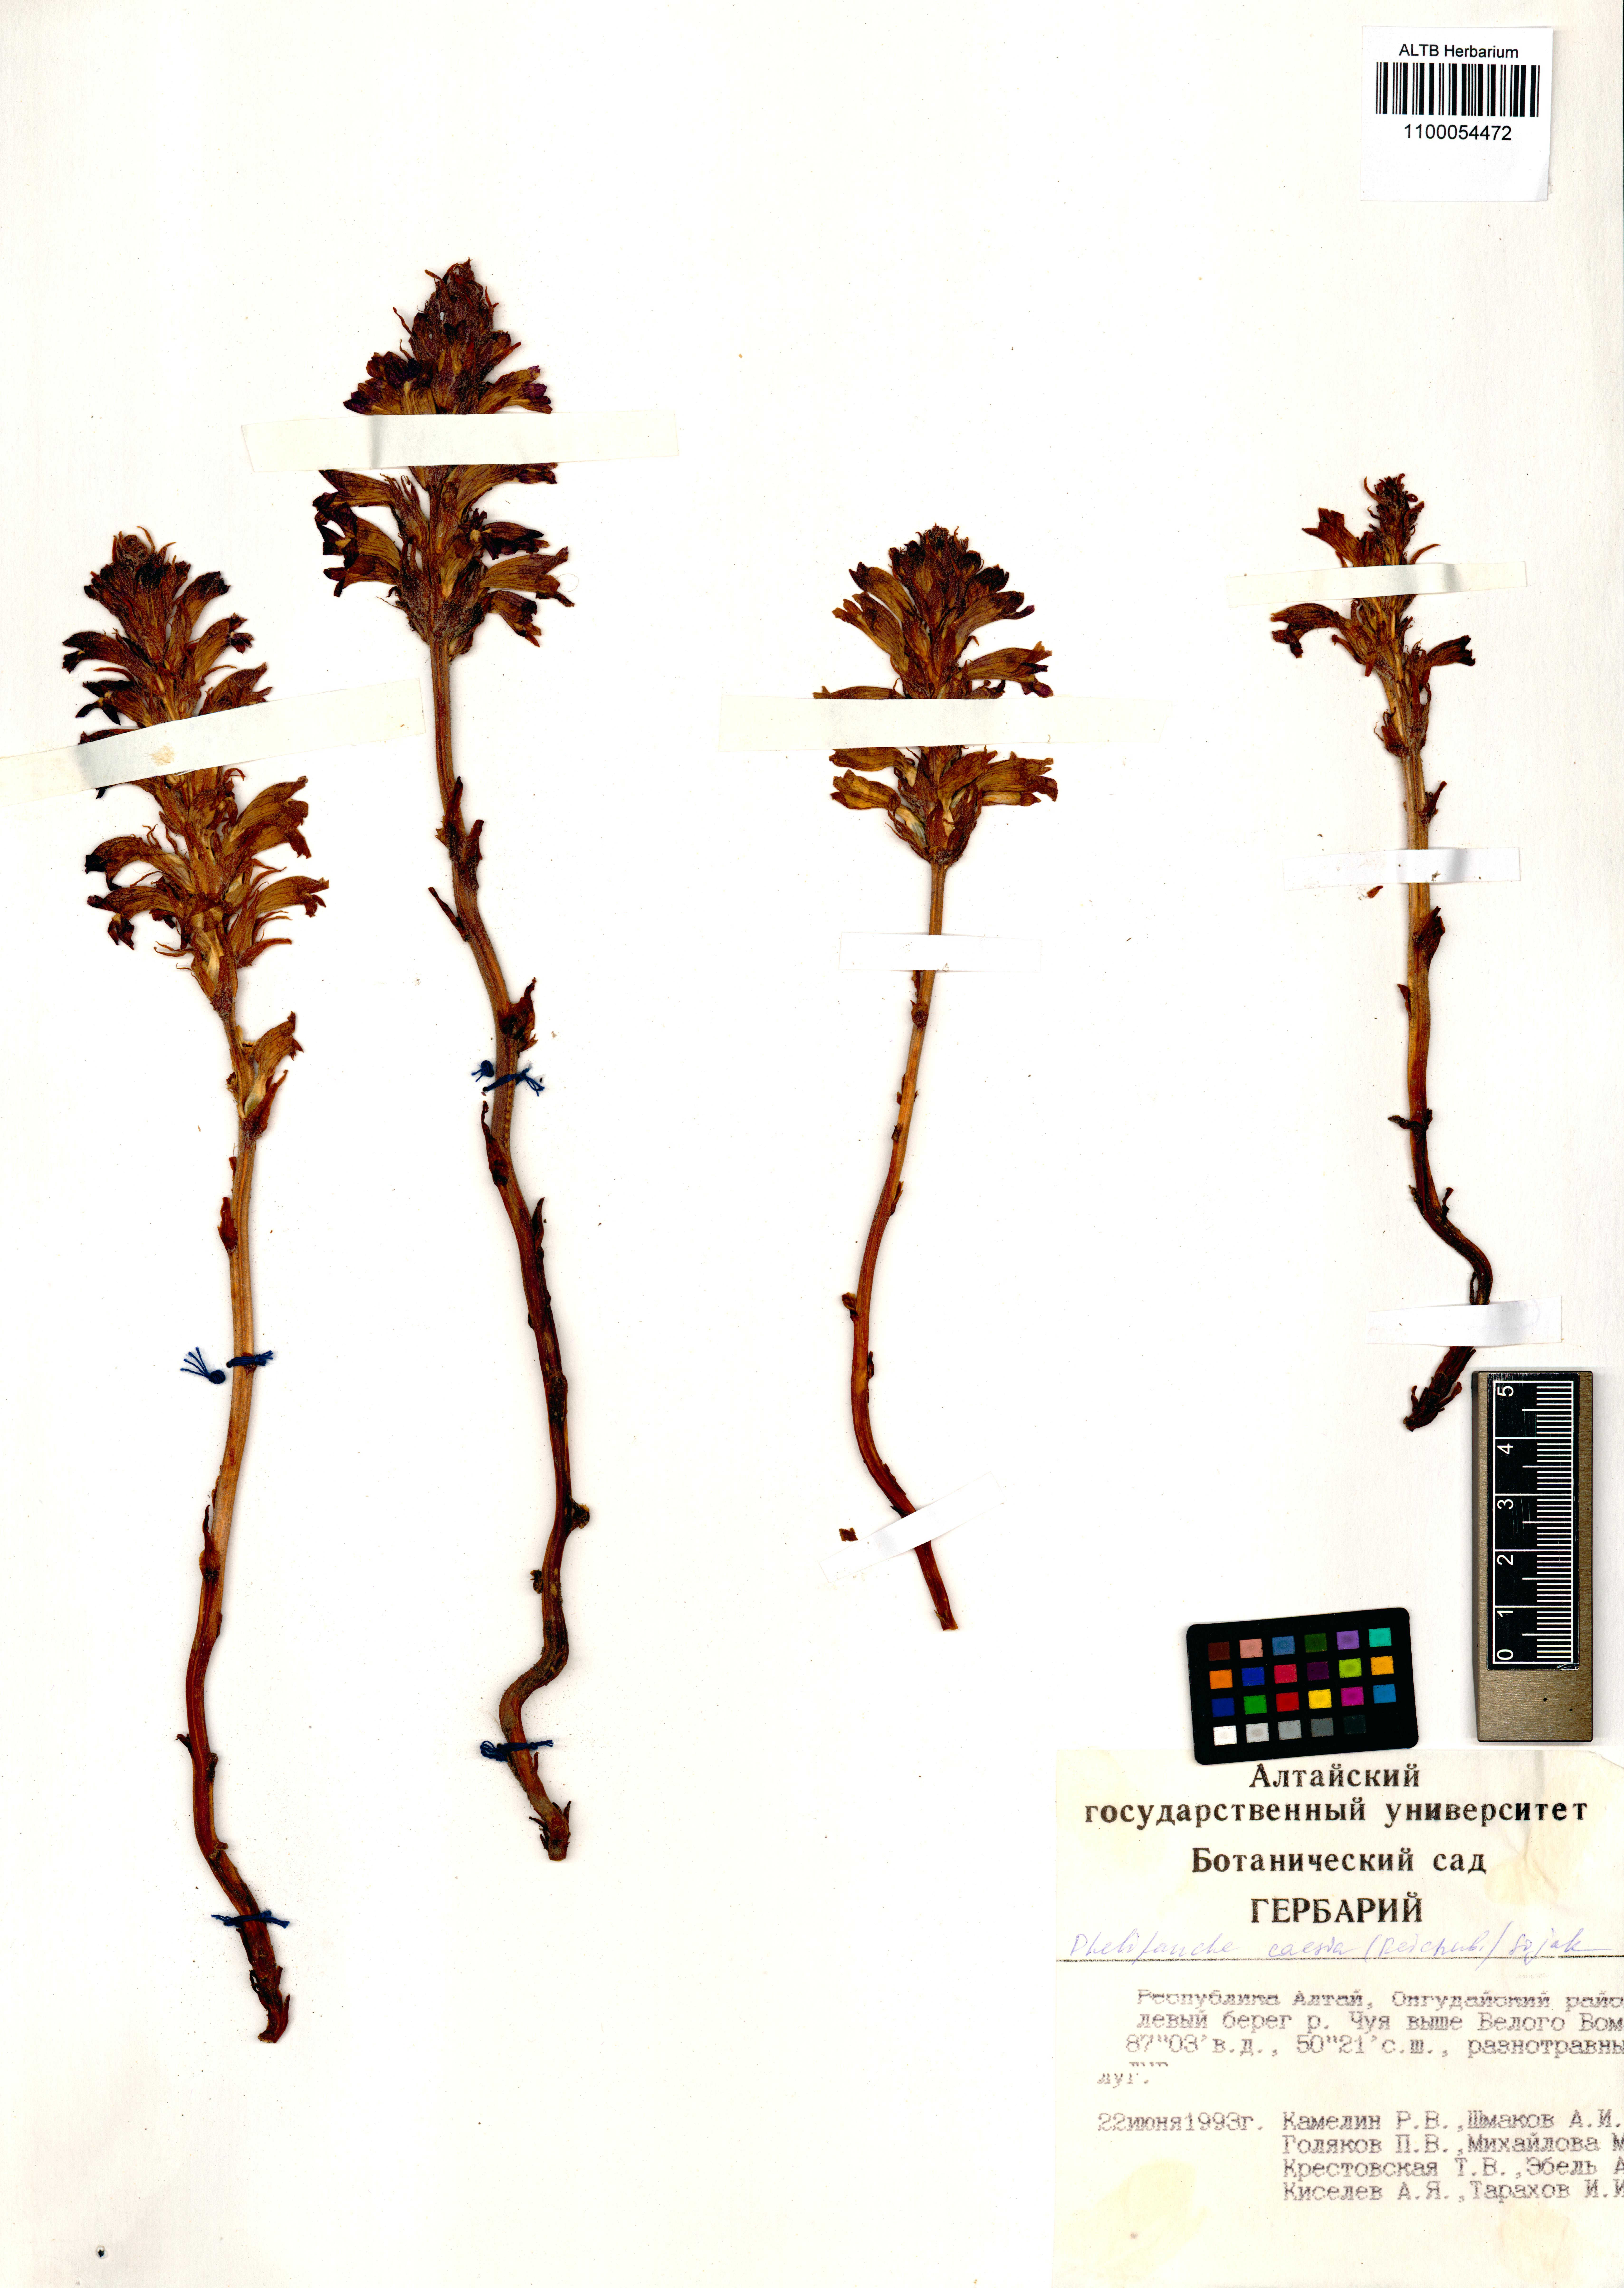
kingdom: Plantae
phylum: Tracheophyta
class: Magnoliopsida
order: Lamiales
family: Orobanchaceae
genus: Phelipanche
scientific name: Phelipanche caesia
